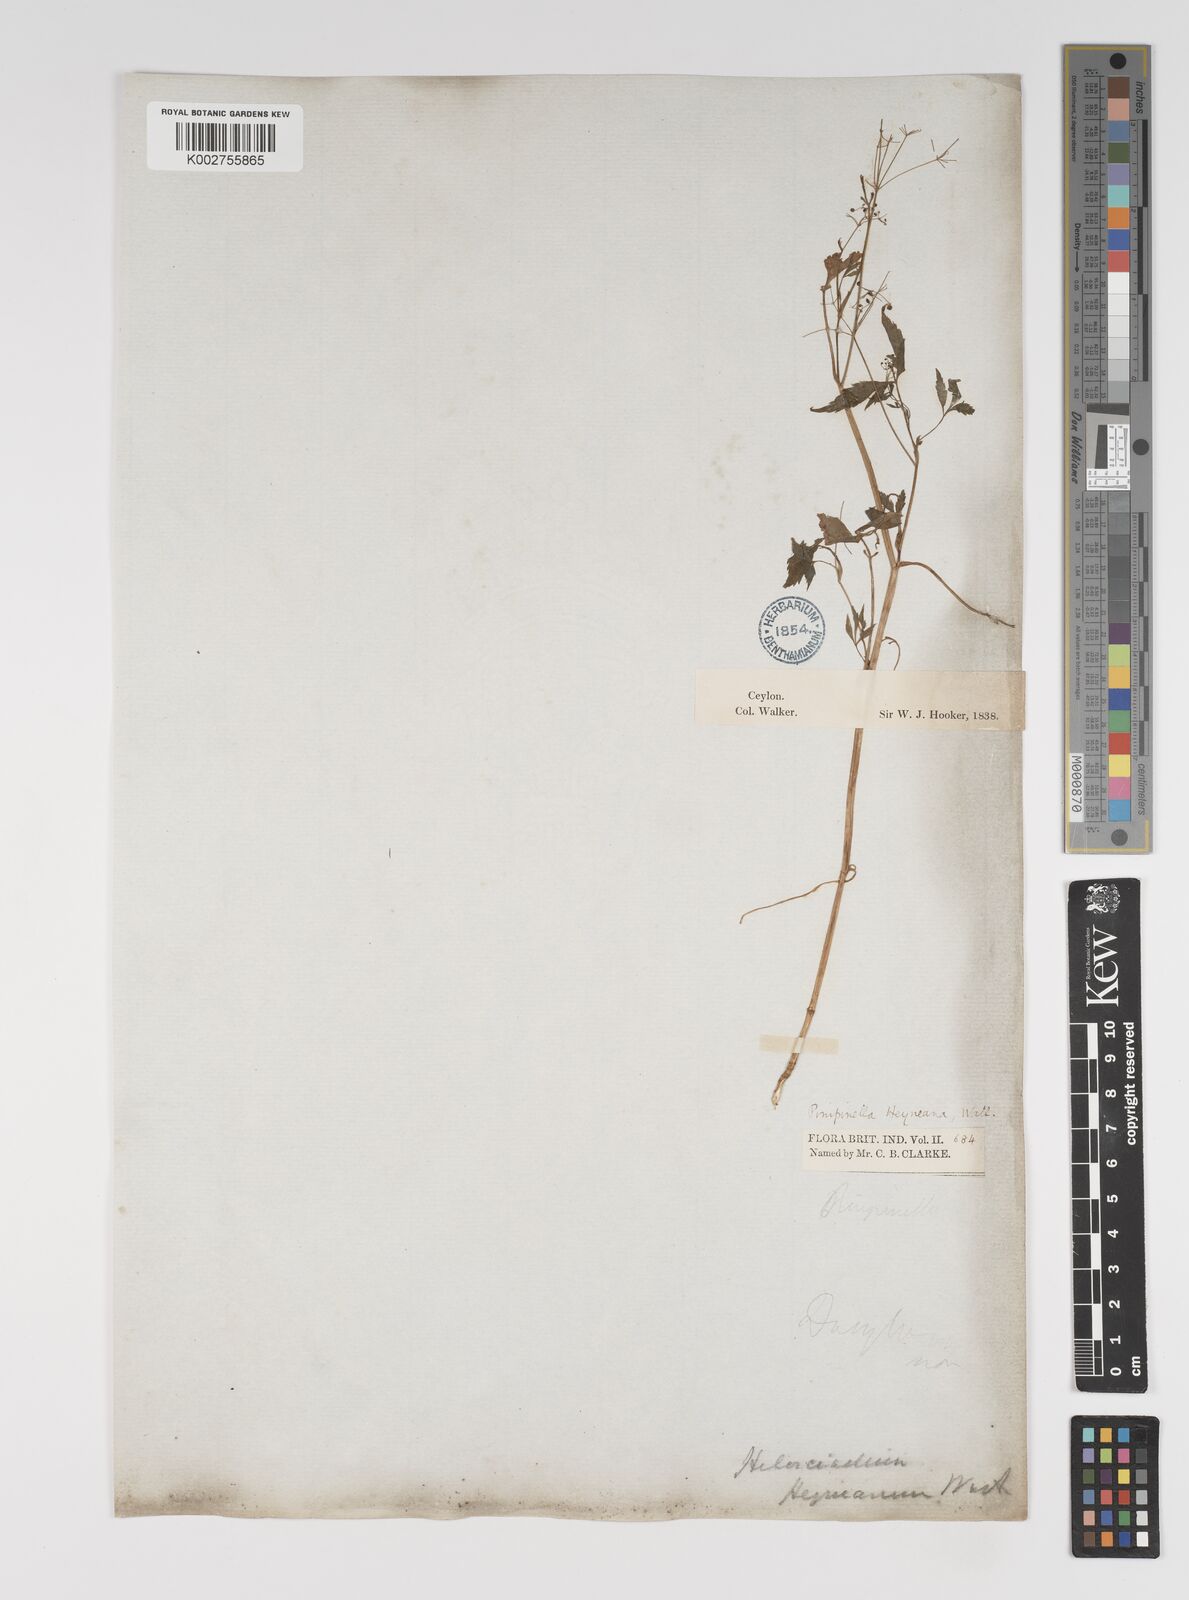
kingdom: Plantae
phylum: Tracheophyta
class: Magnoliopsida
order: Apiales
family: Apiaceae
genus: Pimpinella
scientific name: Pimpinella heyneana
